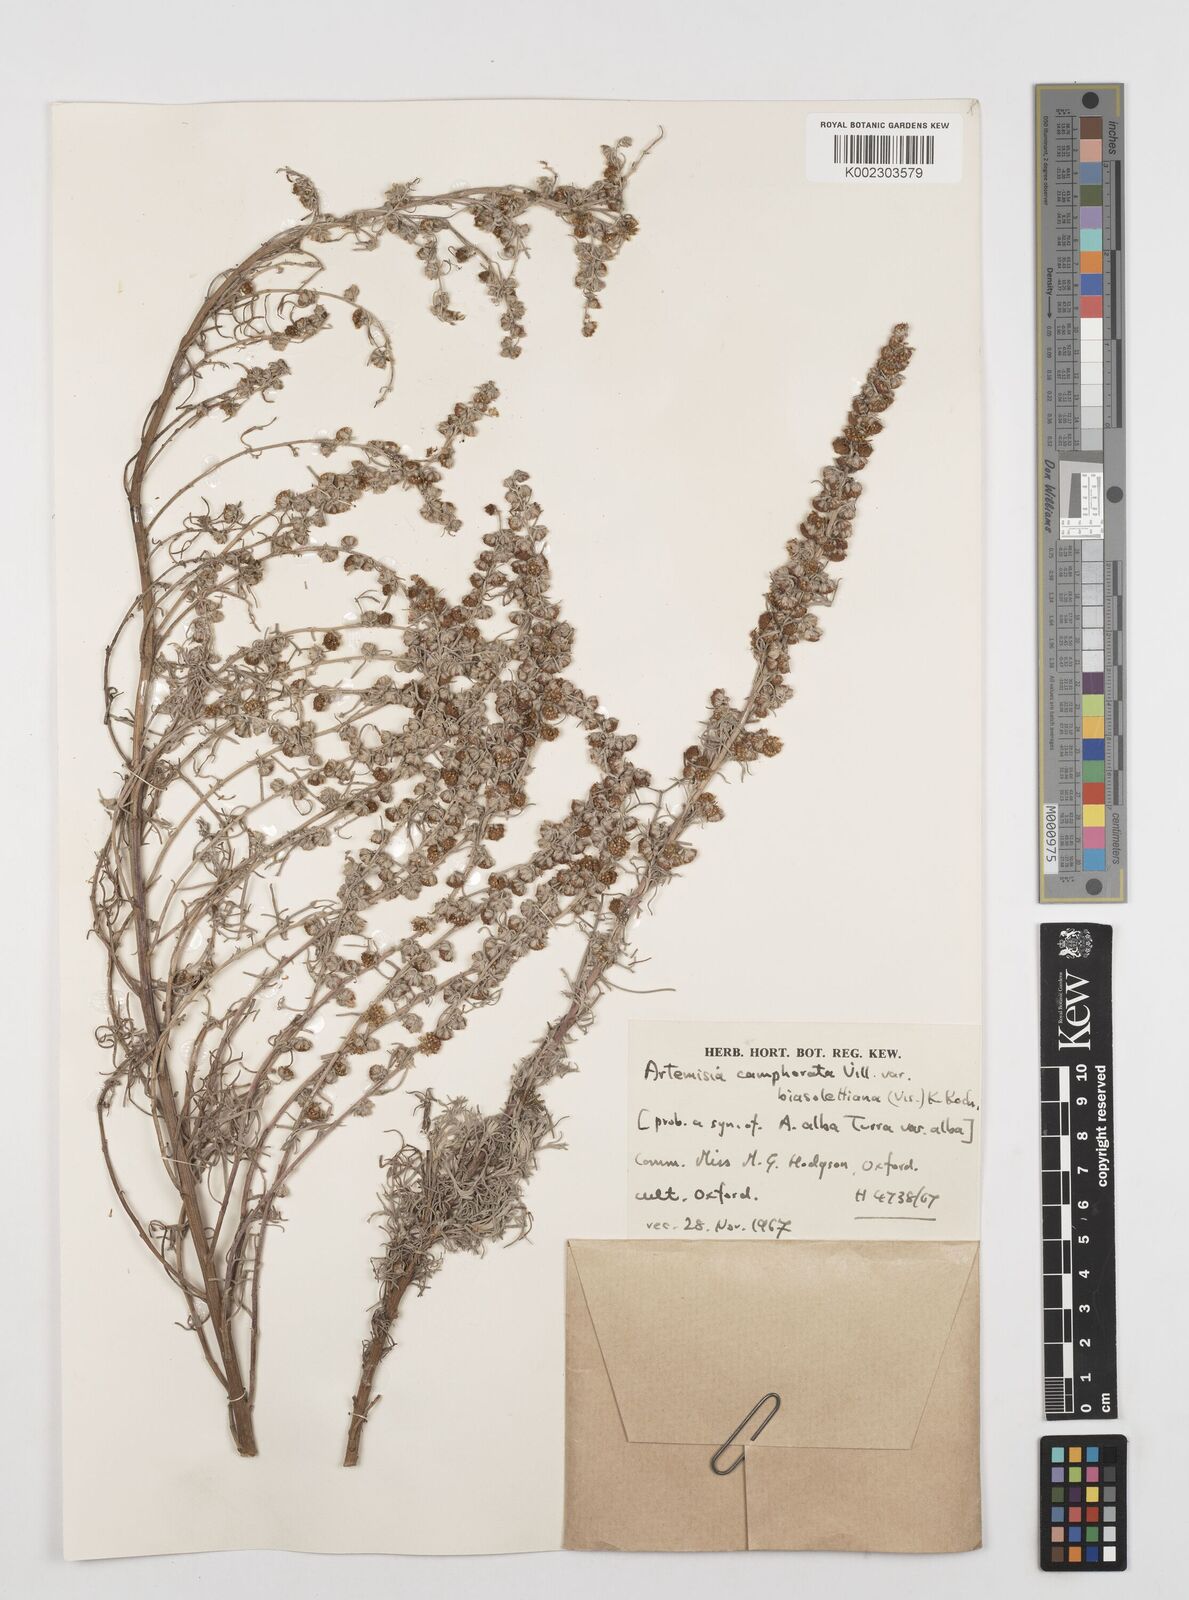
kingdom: Plantae
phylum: Tracheophyta
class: Magnoliopsida
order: Asterales
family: Asteraceae
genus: Artemisia
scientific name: Artemisia alba
